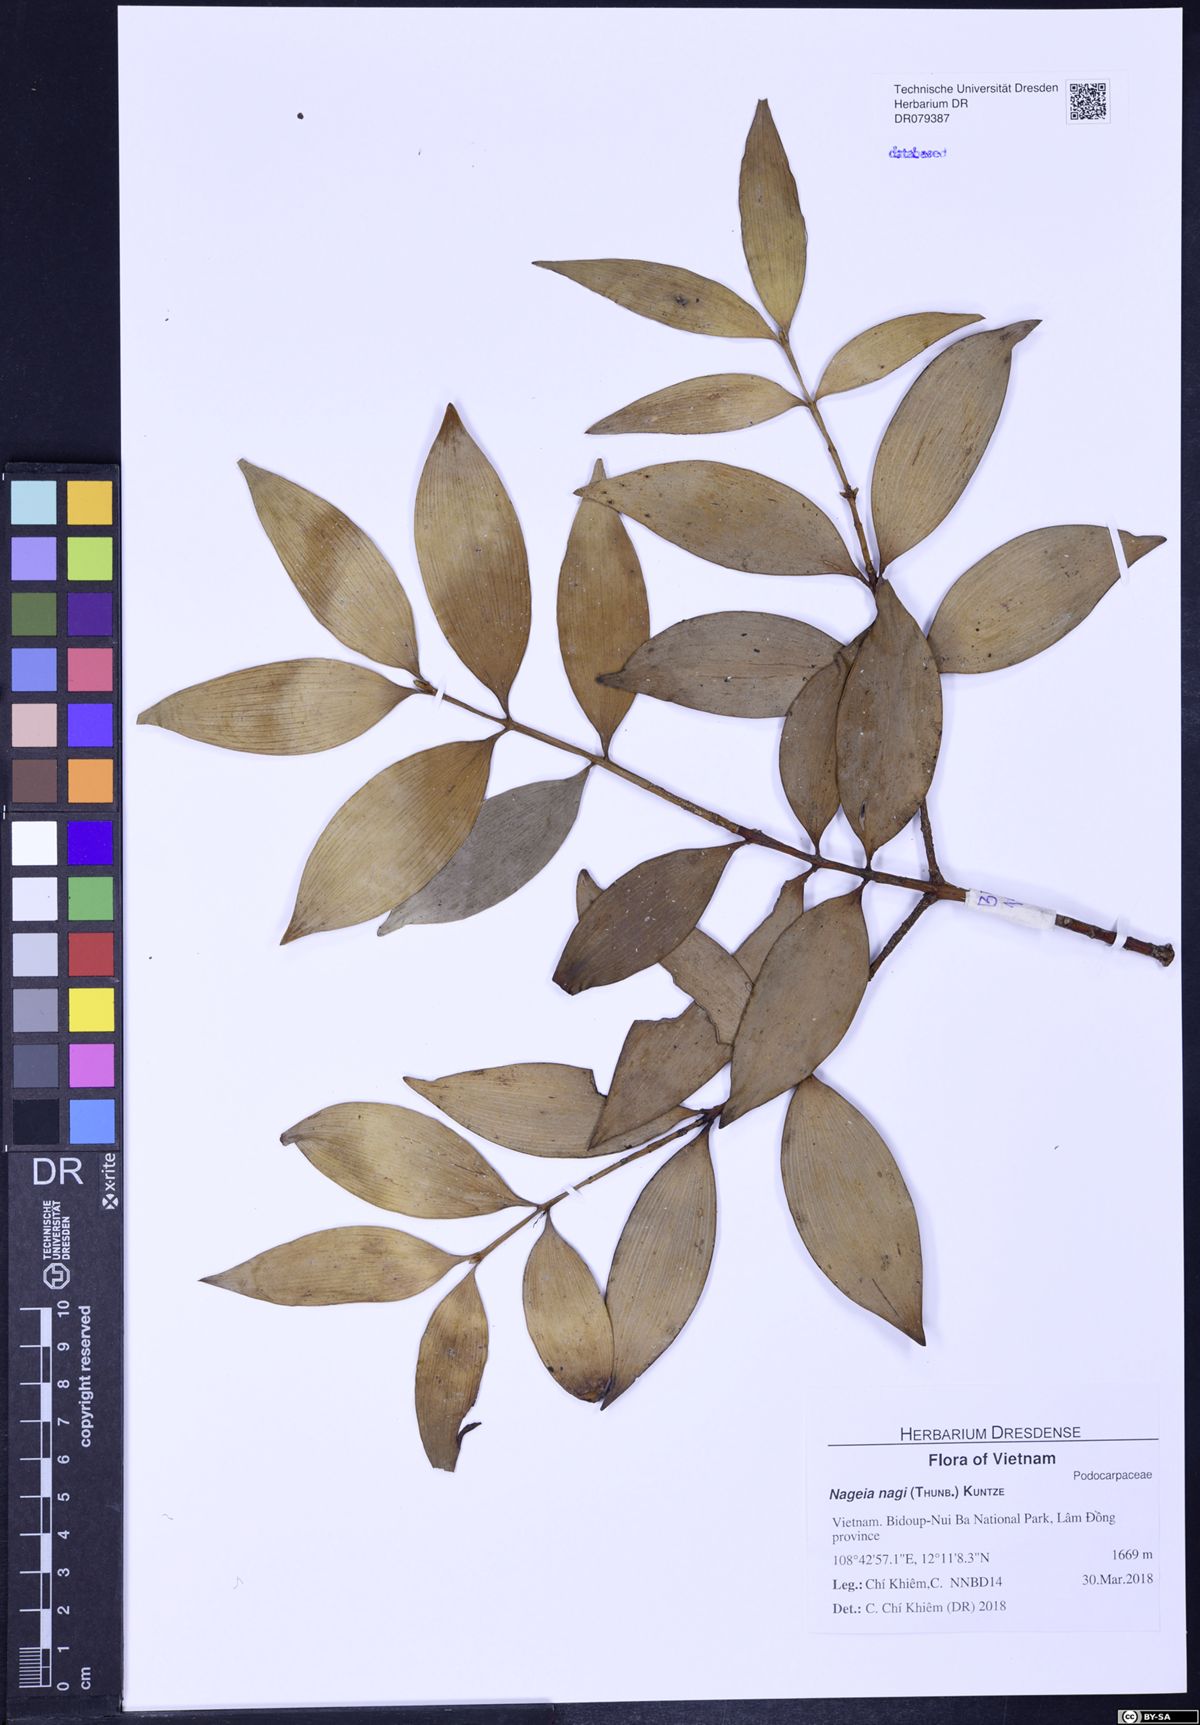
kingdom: Plantae
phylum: Tracheophyta
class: Pinopsida
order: Pinales
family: Podocarpaceae
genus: Nageia
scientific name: Nageia nagi
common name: Kaphal
